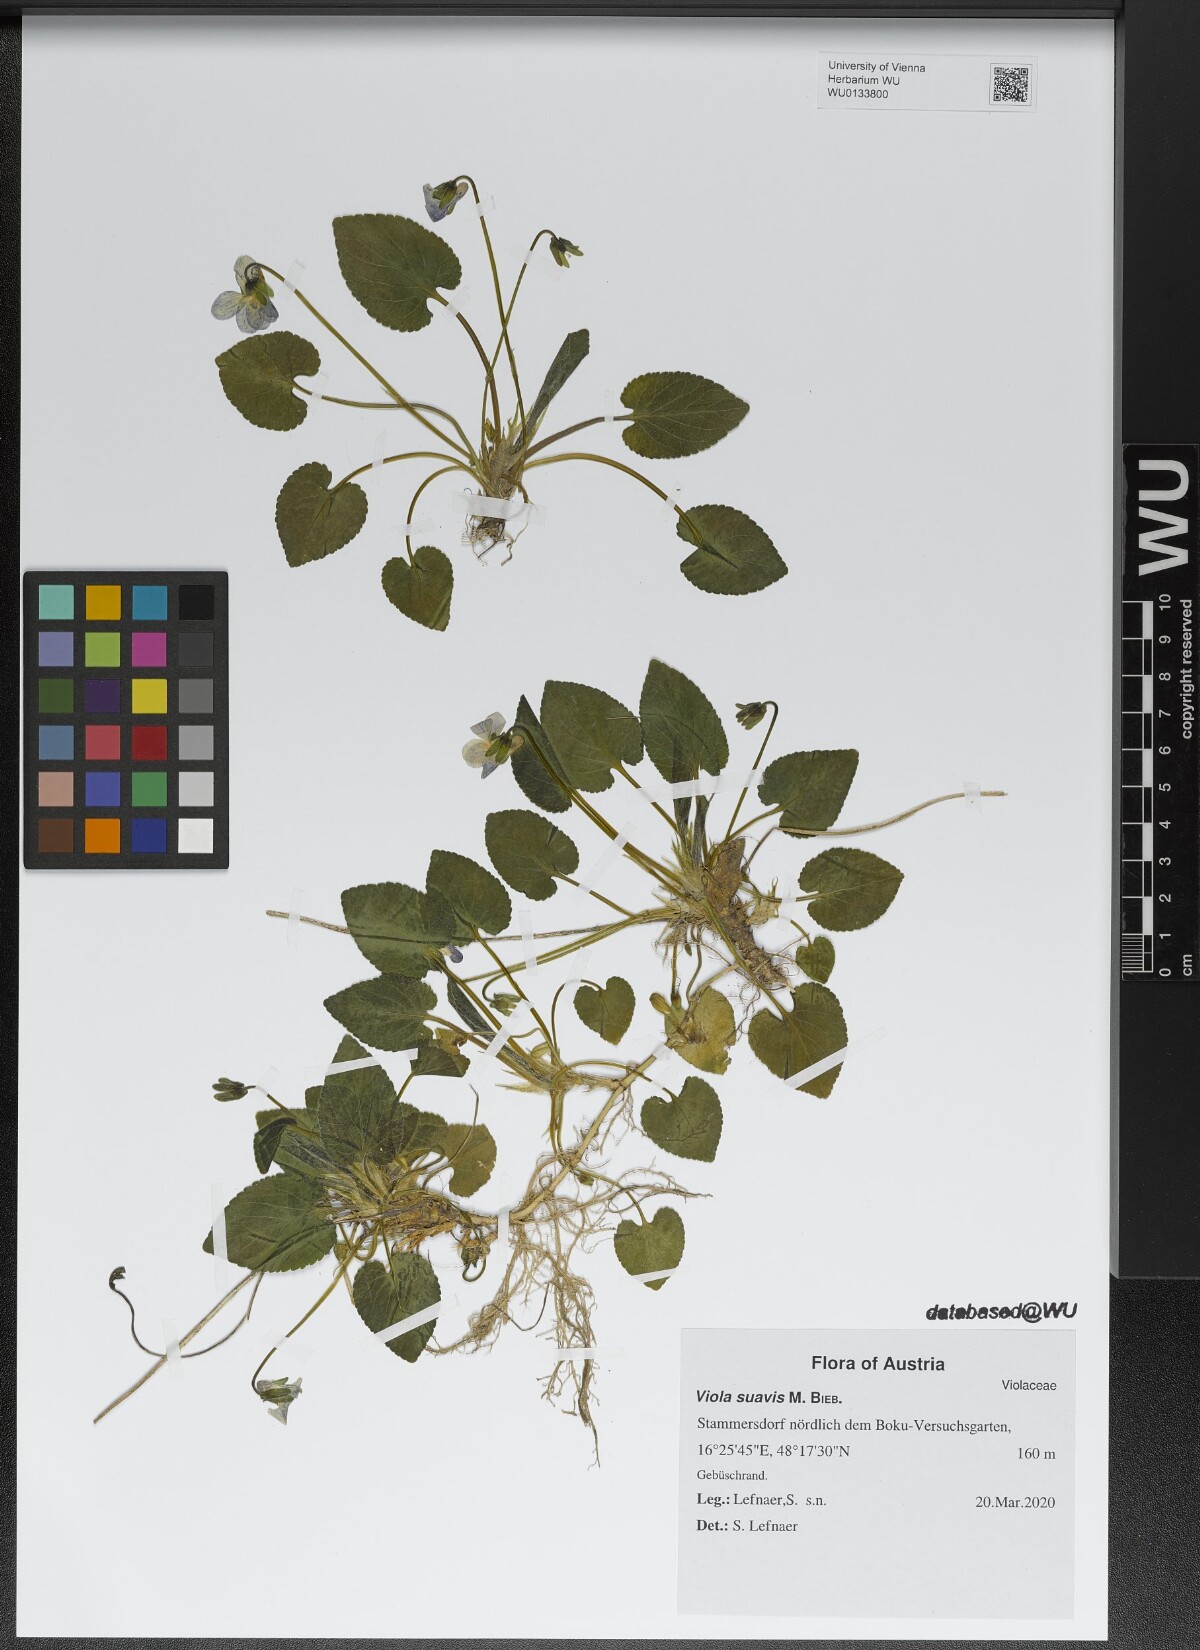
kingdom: Plantae
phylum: Tracheophyta
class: Magnoliopsida
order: Malpighiales
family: Violaceae
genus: Viola
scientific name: Viola suavis
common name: Russian violet
